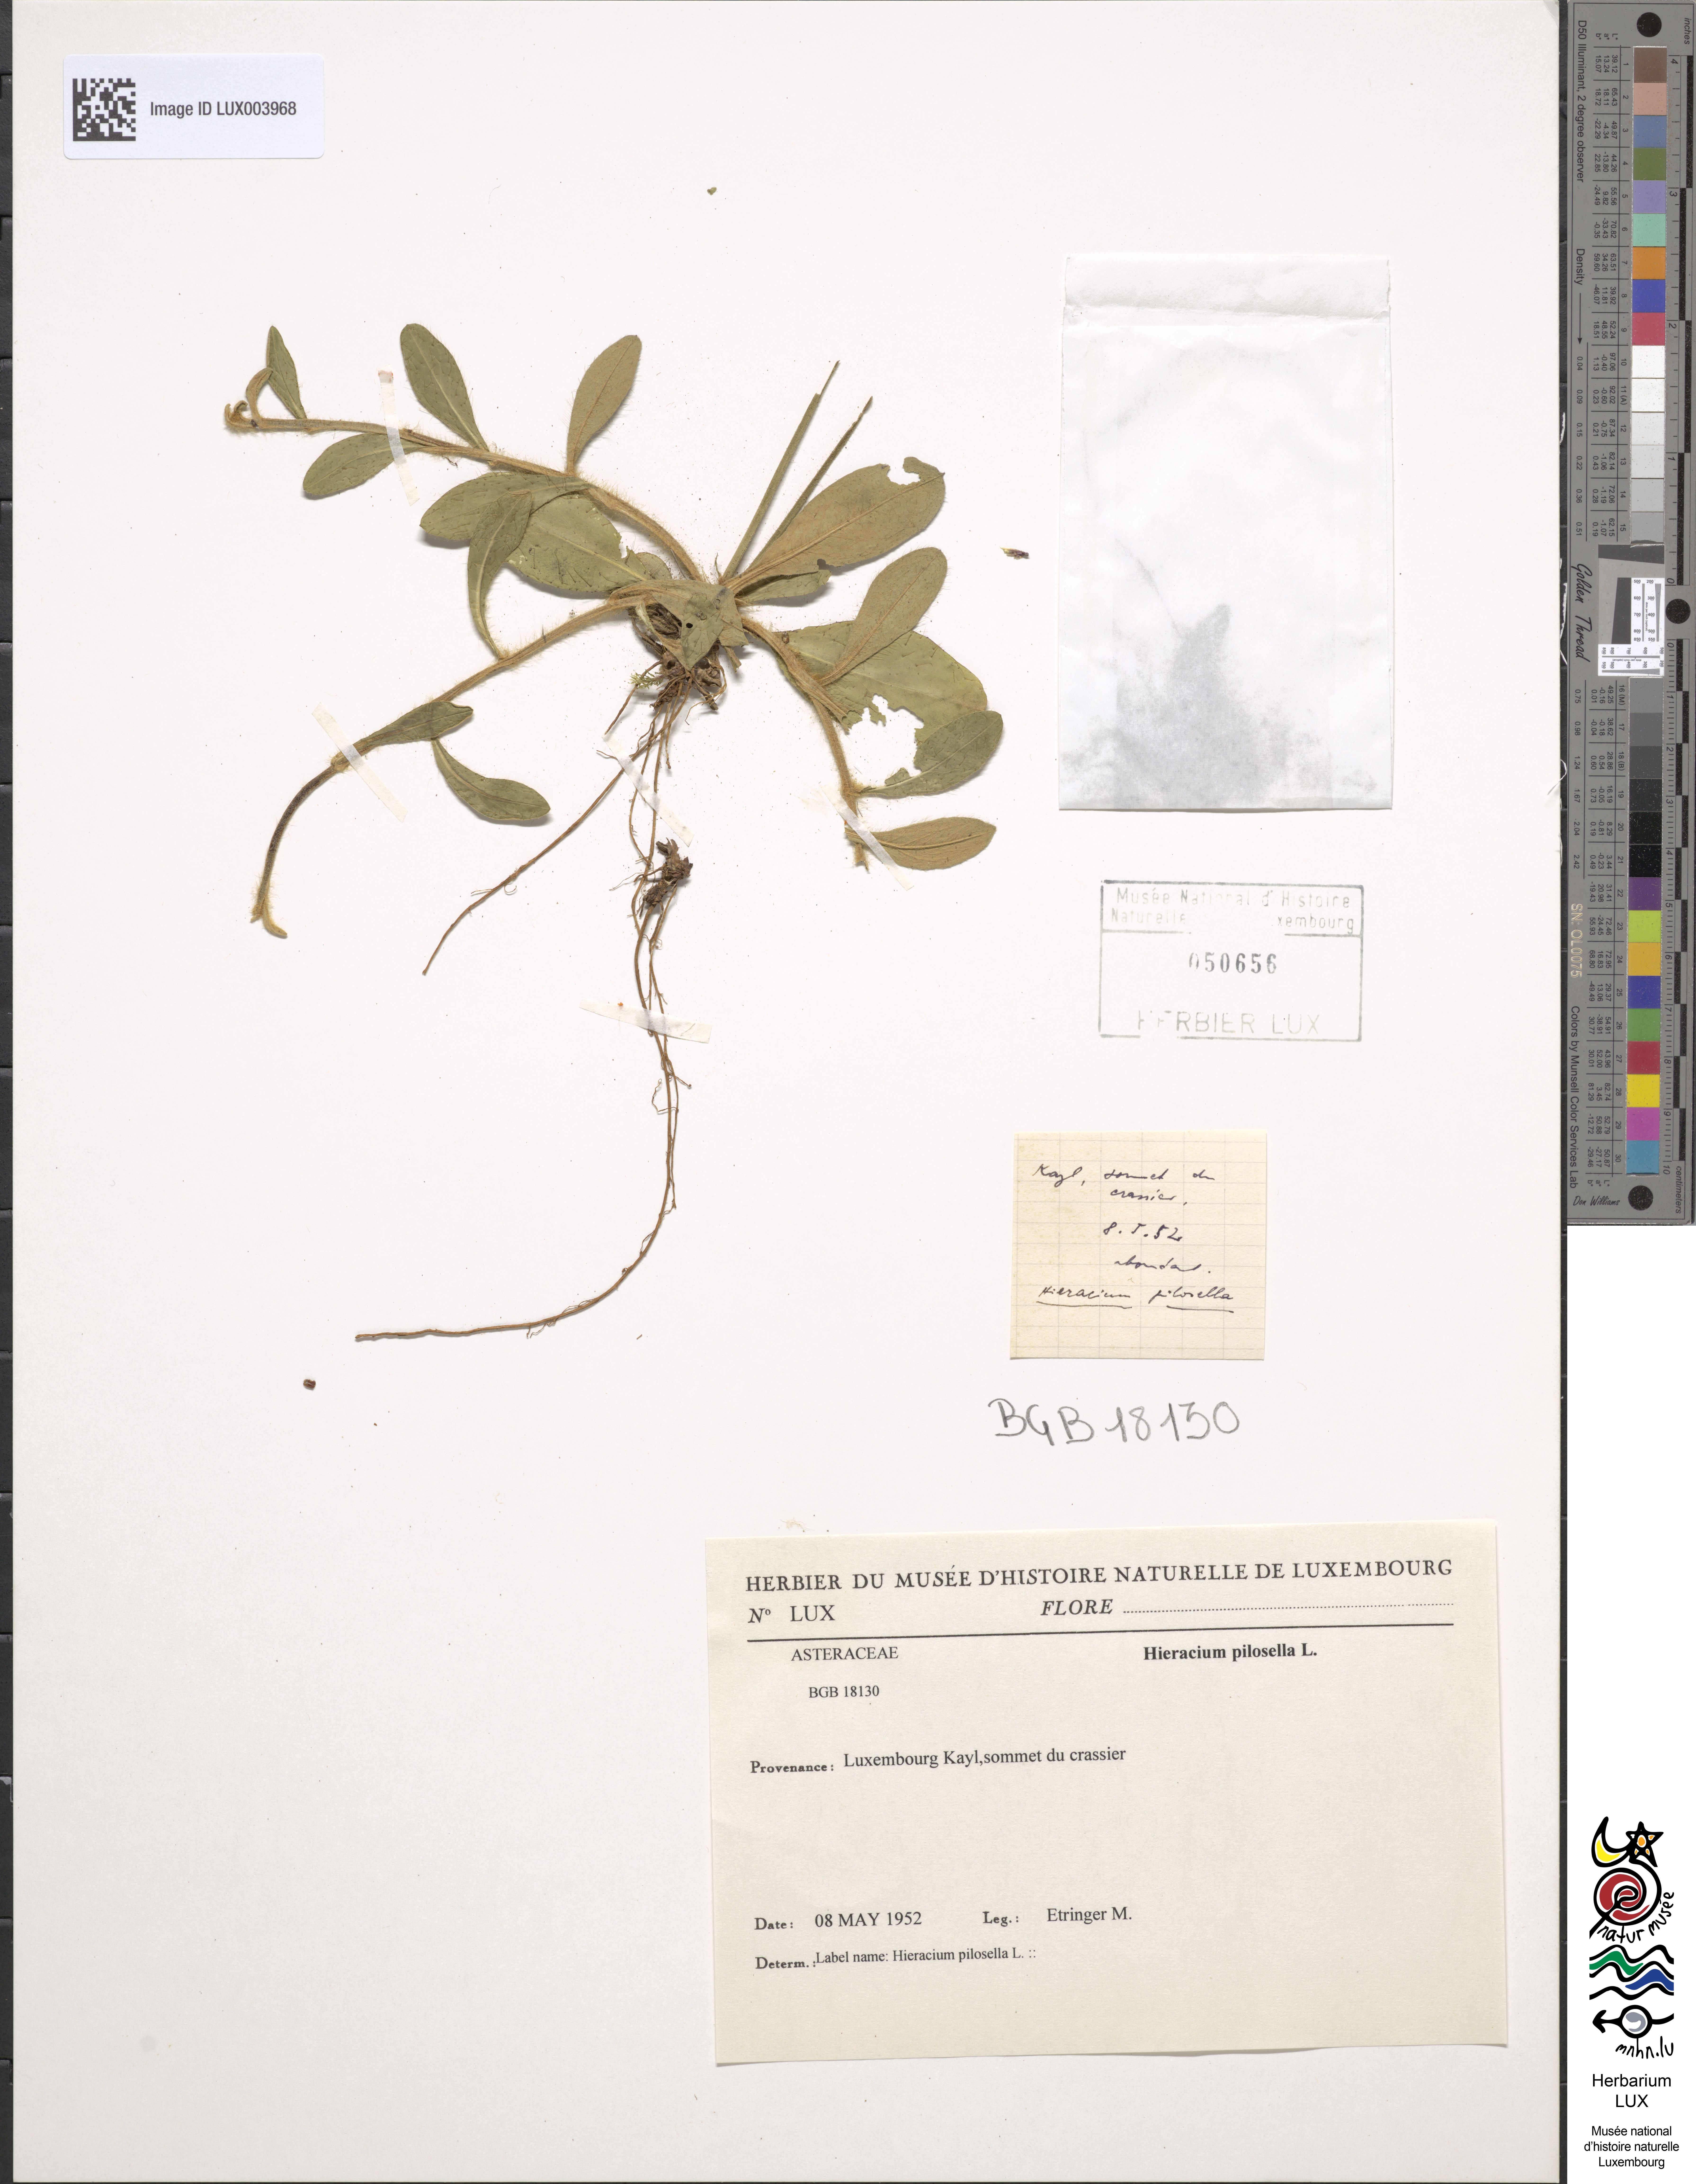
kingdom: Plantae
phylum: Tracheophyta
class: Magnoliopsida
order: Asterales
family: Asteraceae
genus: Pilosella
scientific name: Pilosella officinarum
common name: Mouse-ear hawkweed
